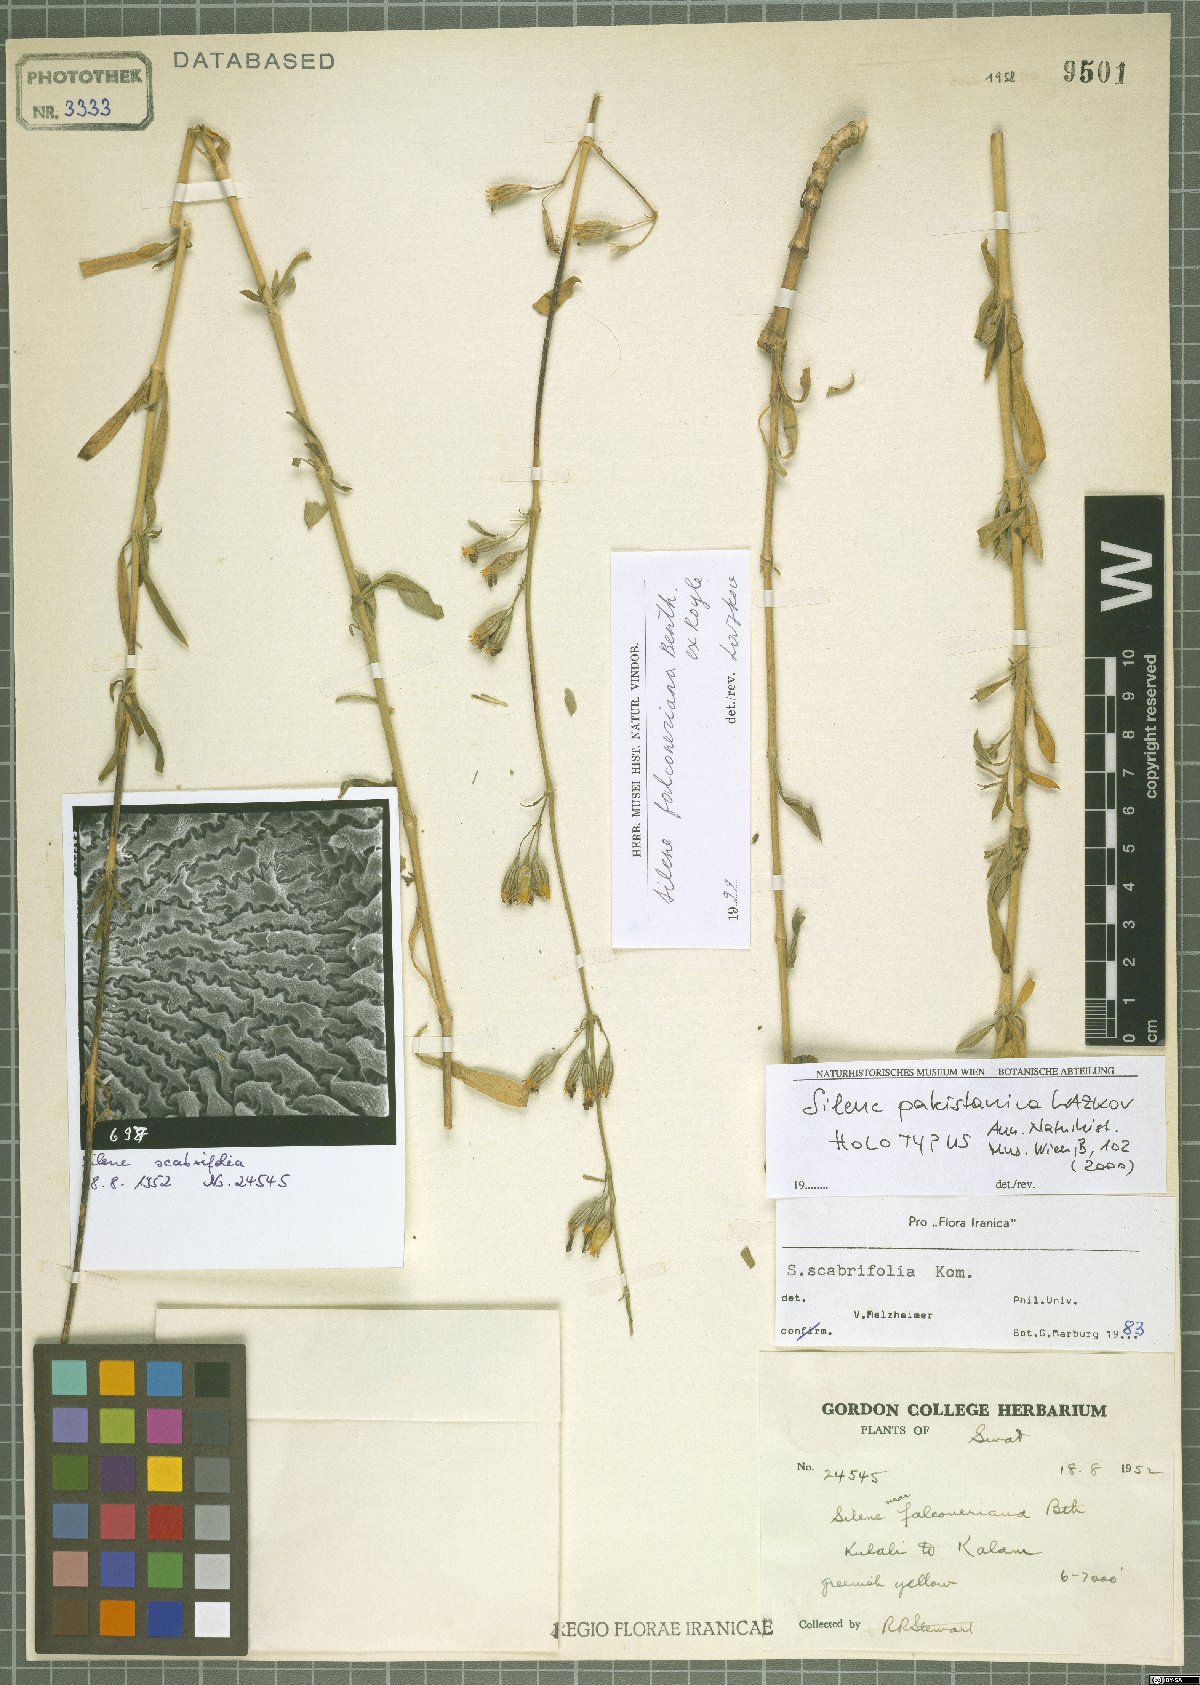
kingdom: Plantae
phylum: Tracheophyta
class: Magnoliopsida
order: Caryophyllales
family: Caryophyllaceae
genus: Silene
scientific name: Silene pakistanica
